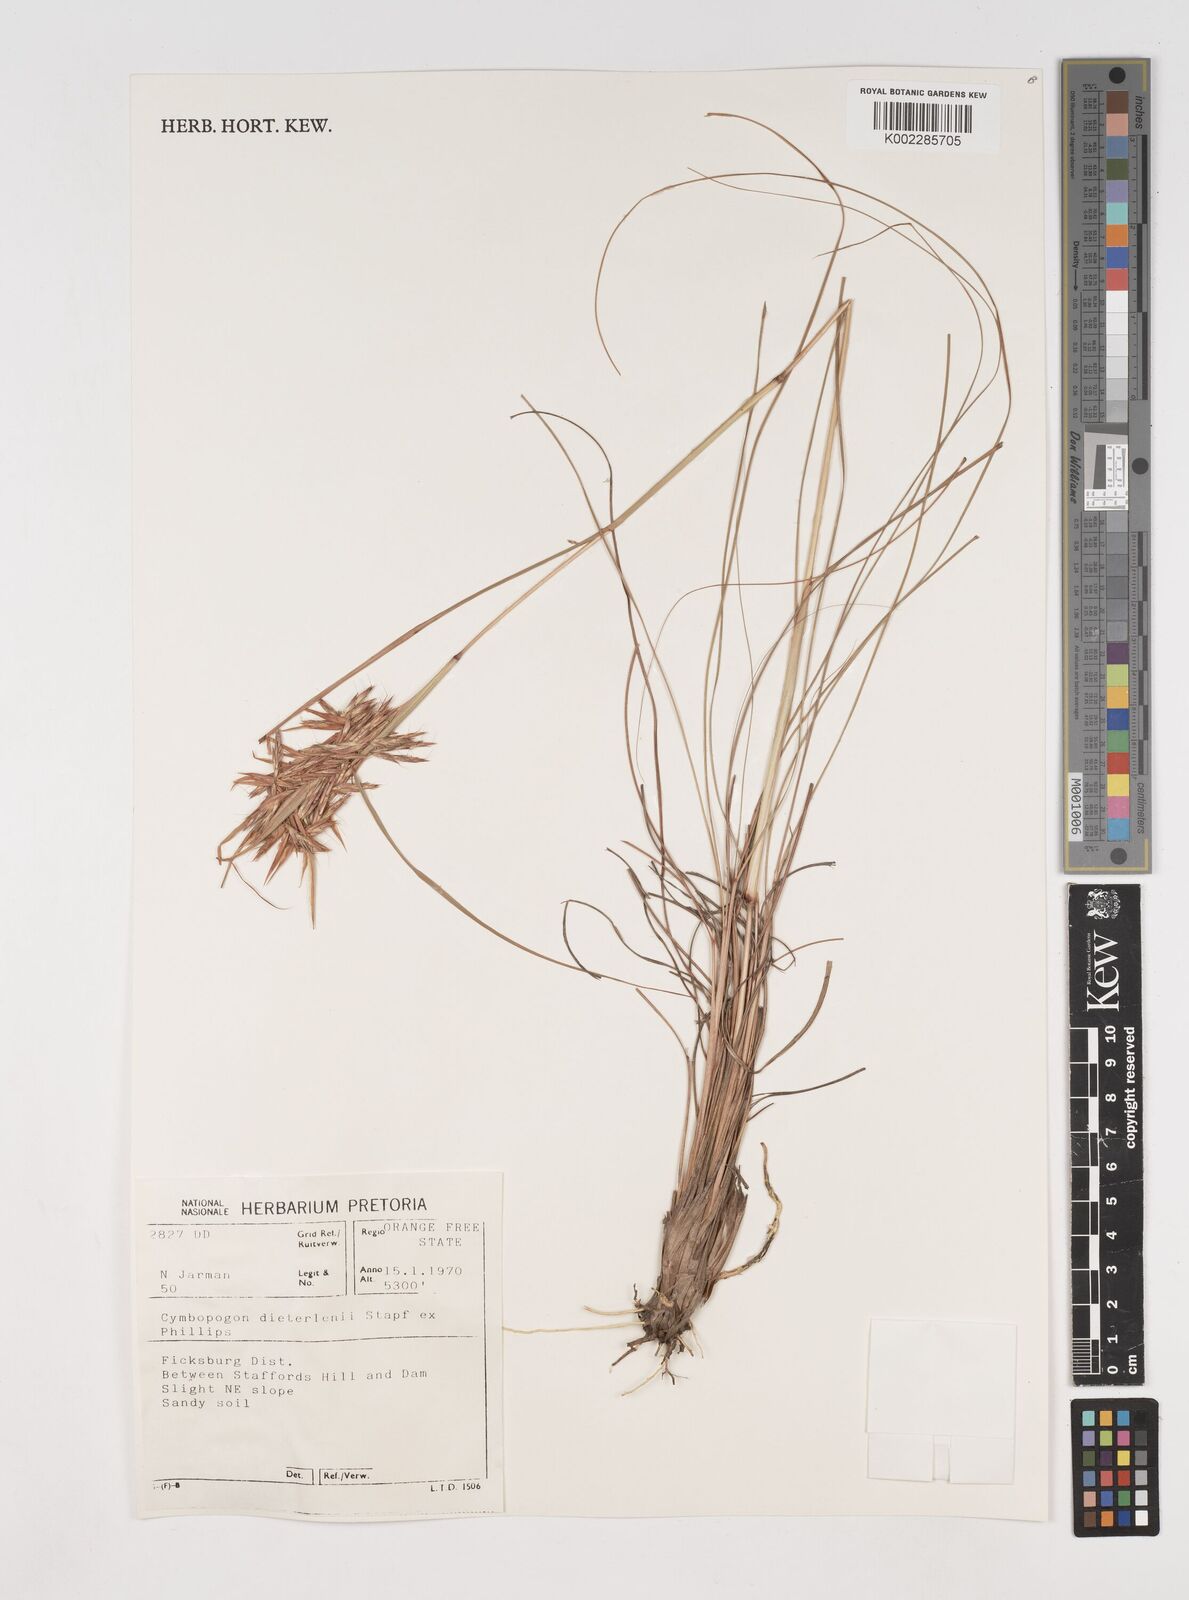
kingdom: Plantae
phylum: Tracheophyta
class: Liliopsida
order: Poales
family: Poaceae
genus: Cymbopogon
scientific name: Cymbopogon dieterlenii
